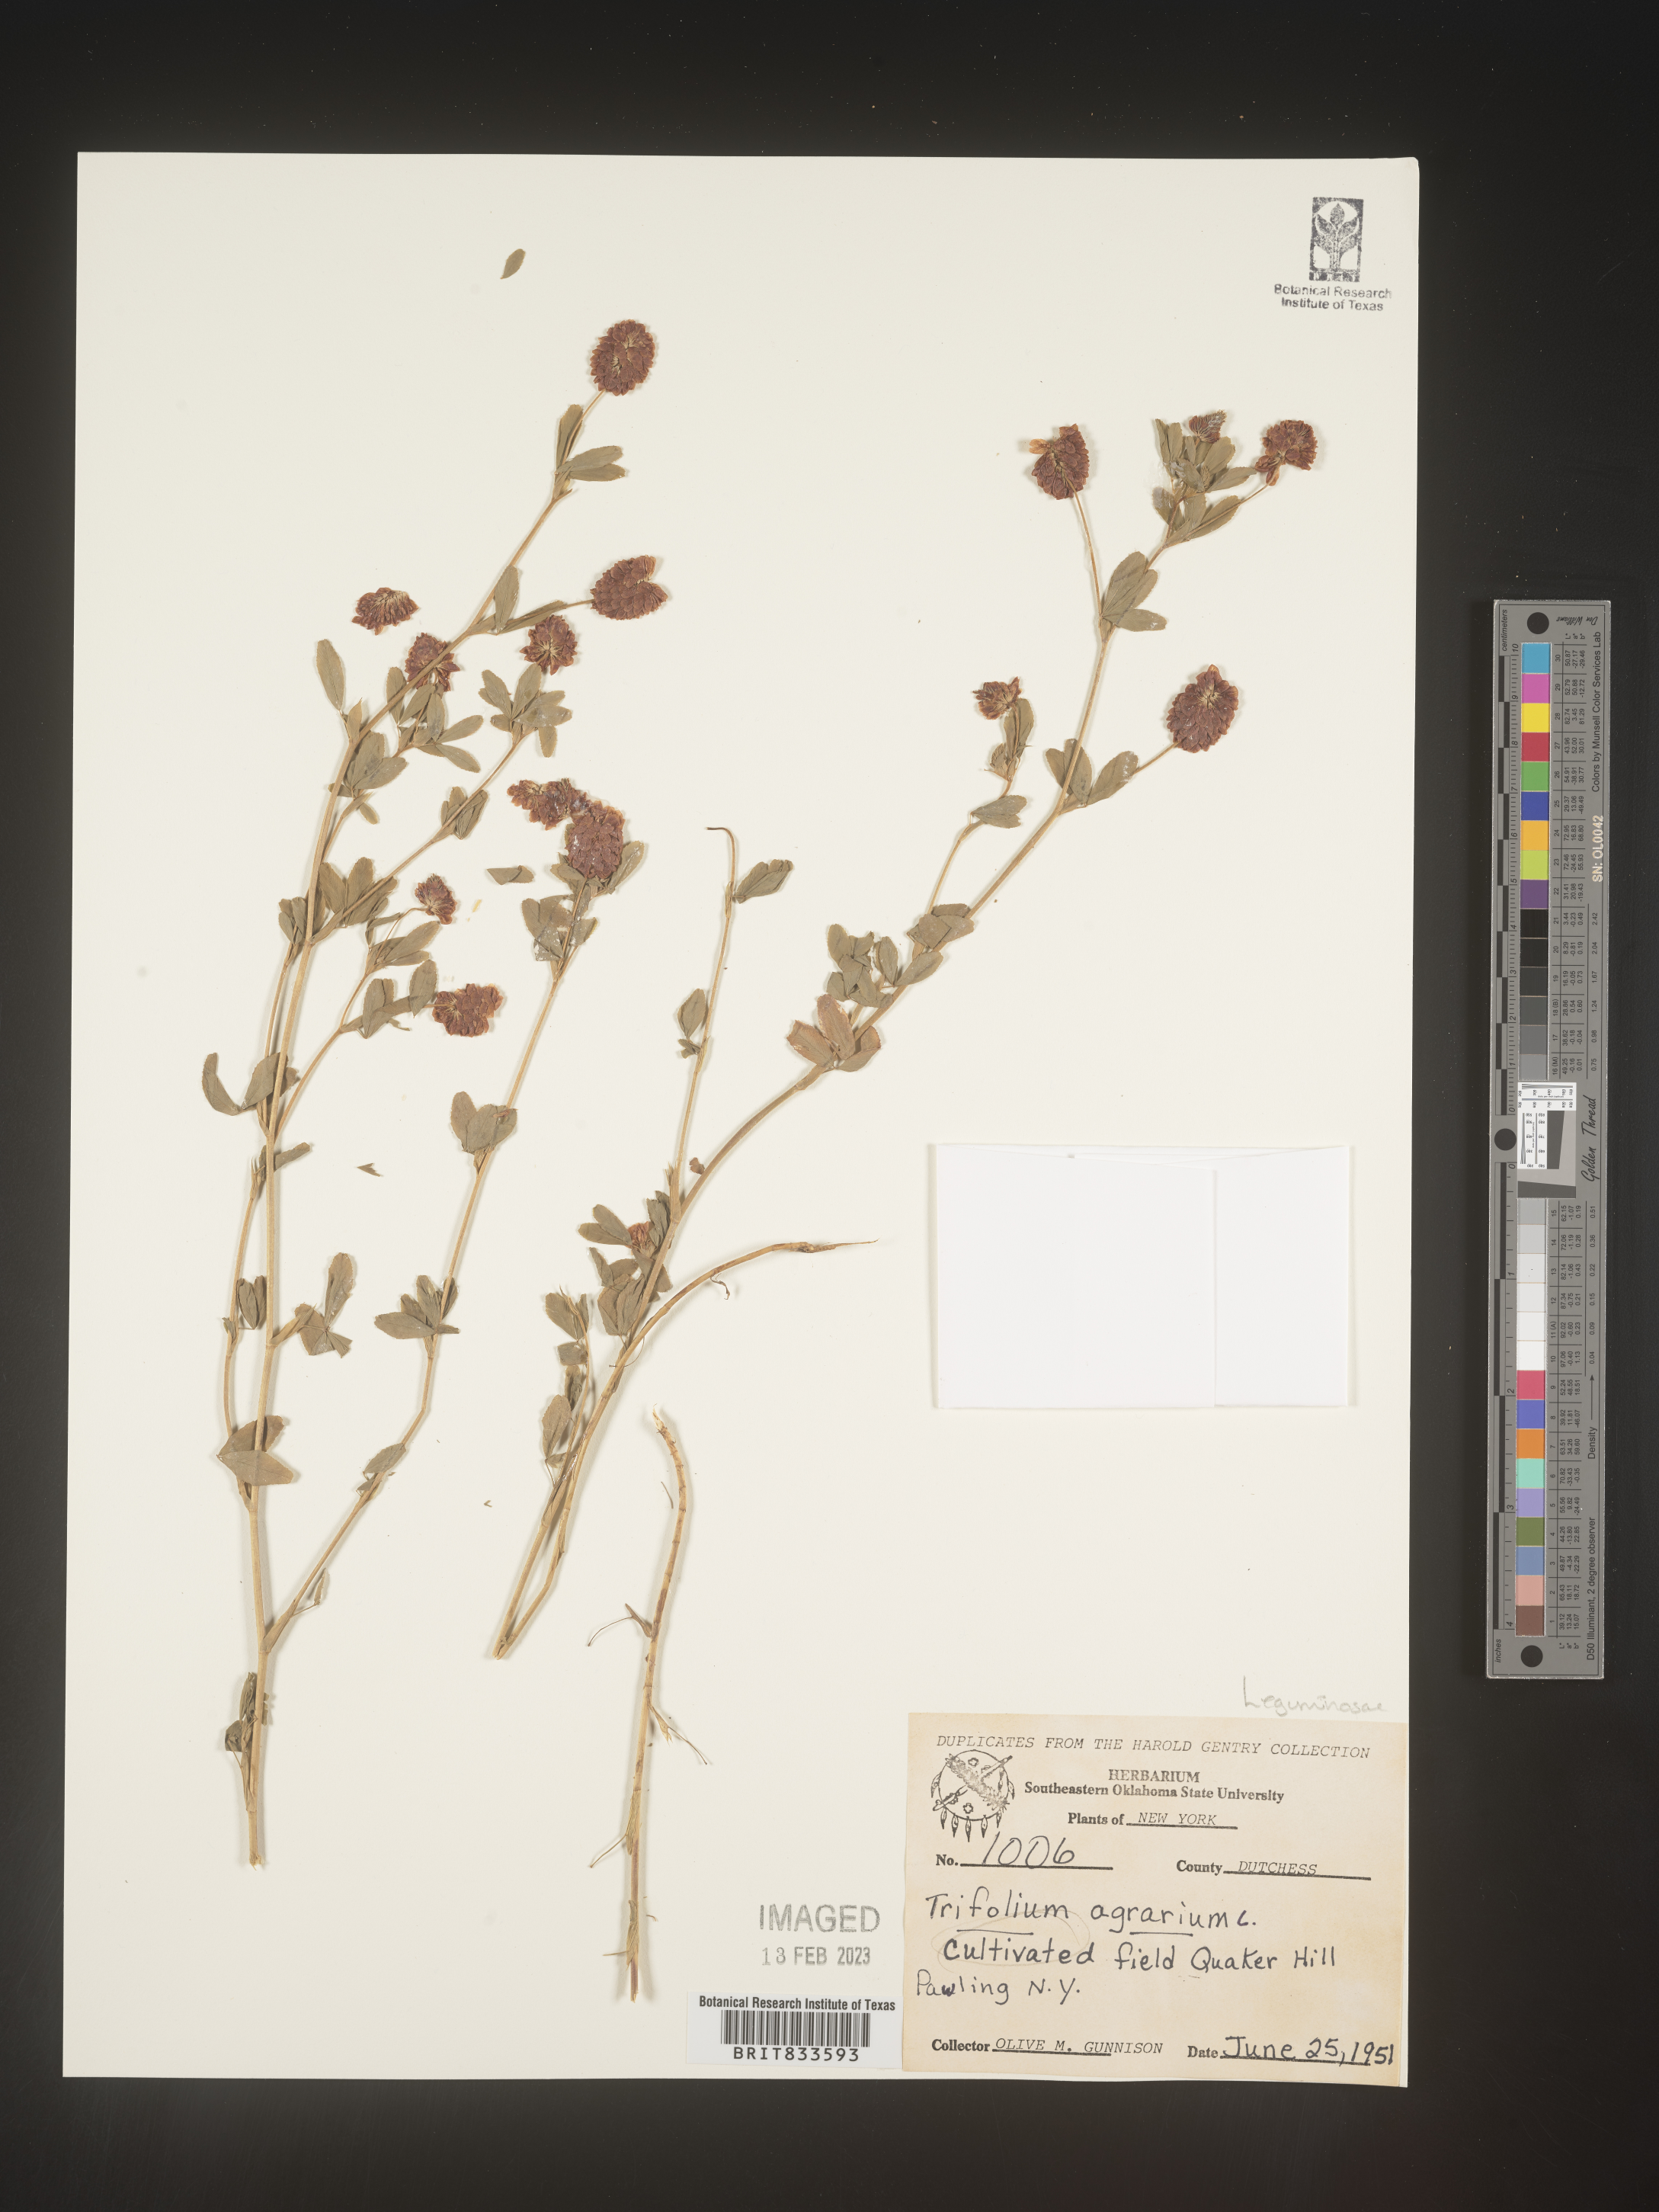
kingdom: Plantae
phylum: Tracheophyta
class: Magnoliopsida
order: Fabales
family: Fabaceae
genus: Trifolium
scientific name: Trifolium agrarium
